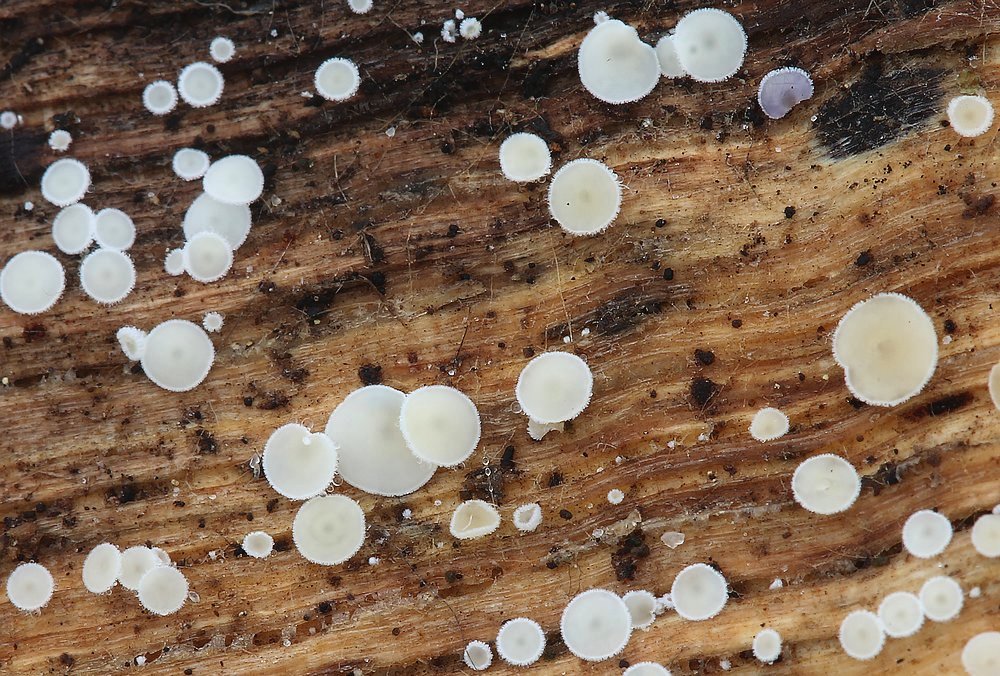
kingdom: Fungi
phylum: Ascomycota
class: Leotiomycetes
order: Helotiales
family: Hyaloscyphaceae
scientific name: Hyaloscyphaceae
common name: frynseskivefamilien
